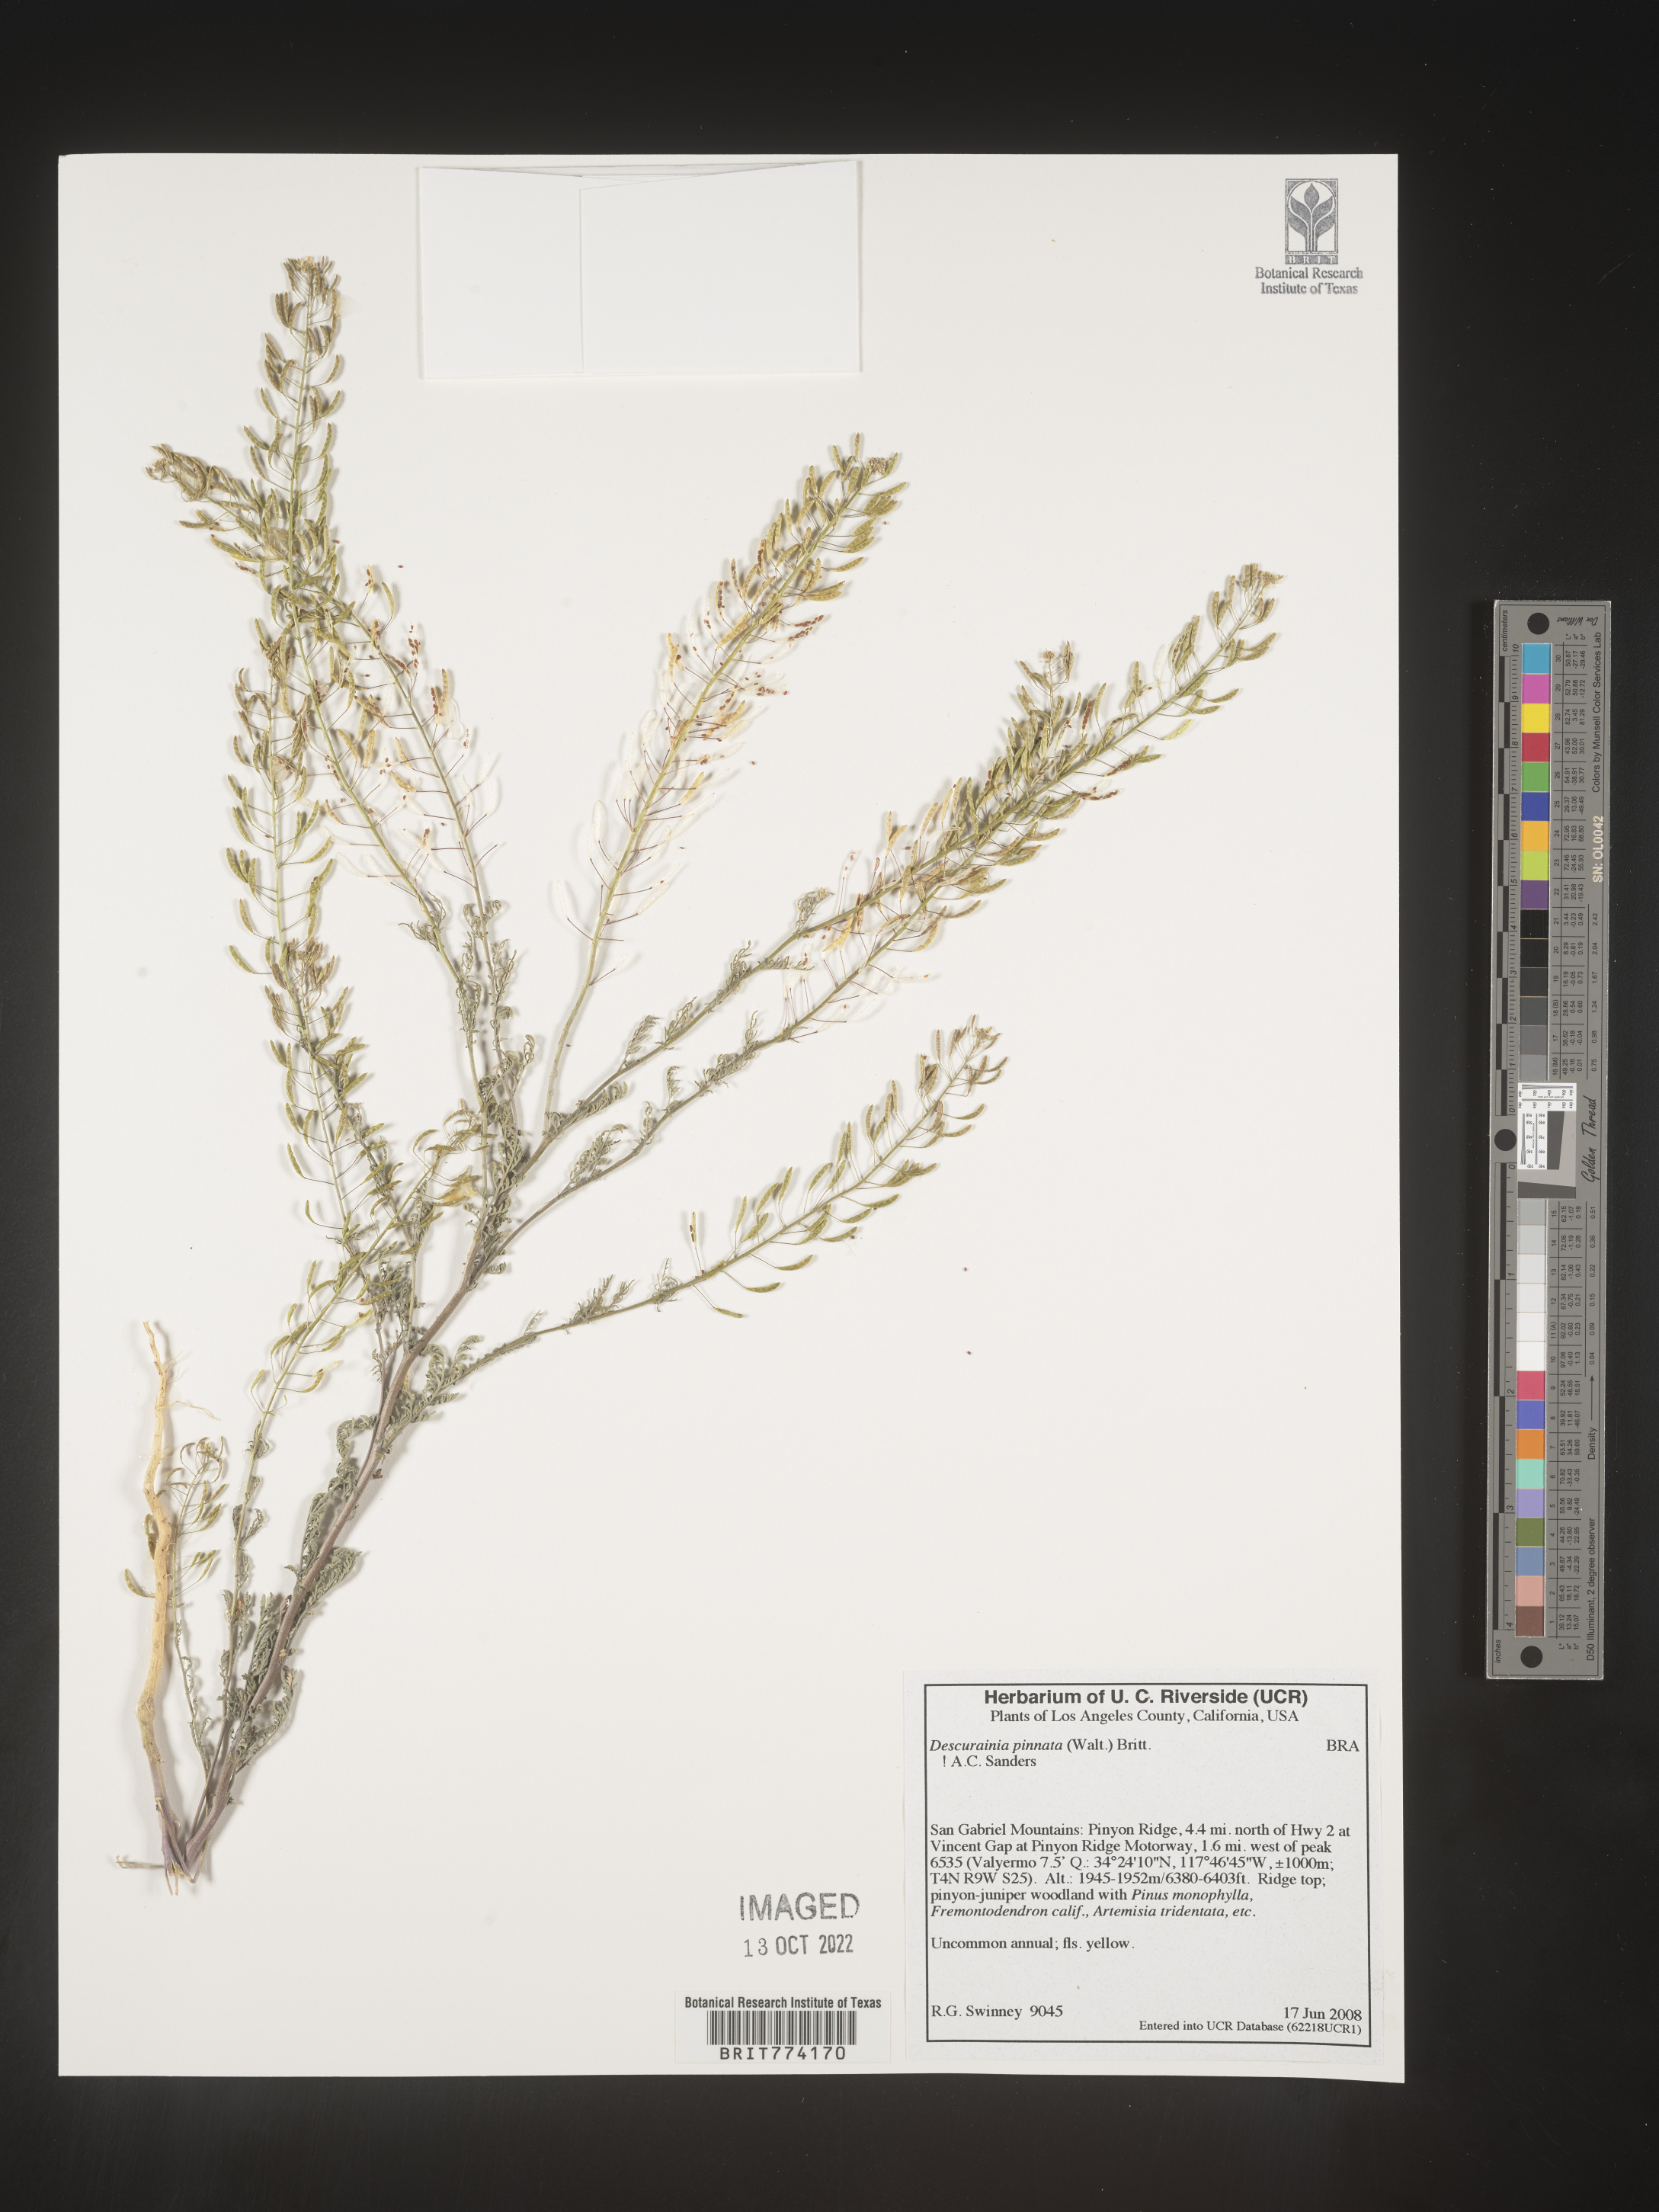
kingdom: Plantae
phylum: Tracheophyta
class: Magnoliopsida
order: Brassicales
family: Brassicaceae
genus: Descurainia
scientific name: Descurainia pinnata
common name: Western tansy mustard
